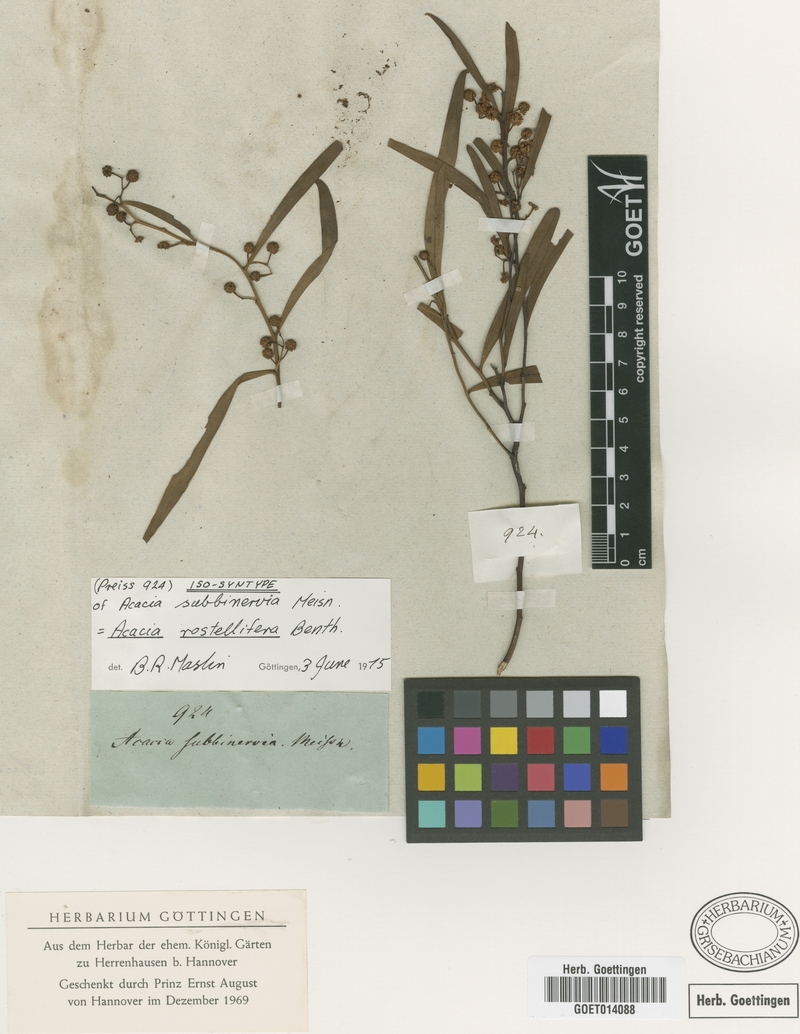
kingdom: Plantae
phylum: Tracheophyta
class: Magnoliopsida
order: Fabales
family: Fabaceae
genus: Acacia
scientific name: Acacia rostellifera
